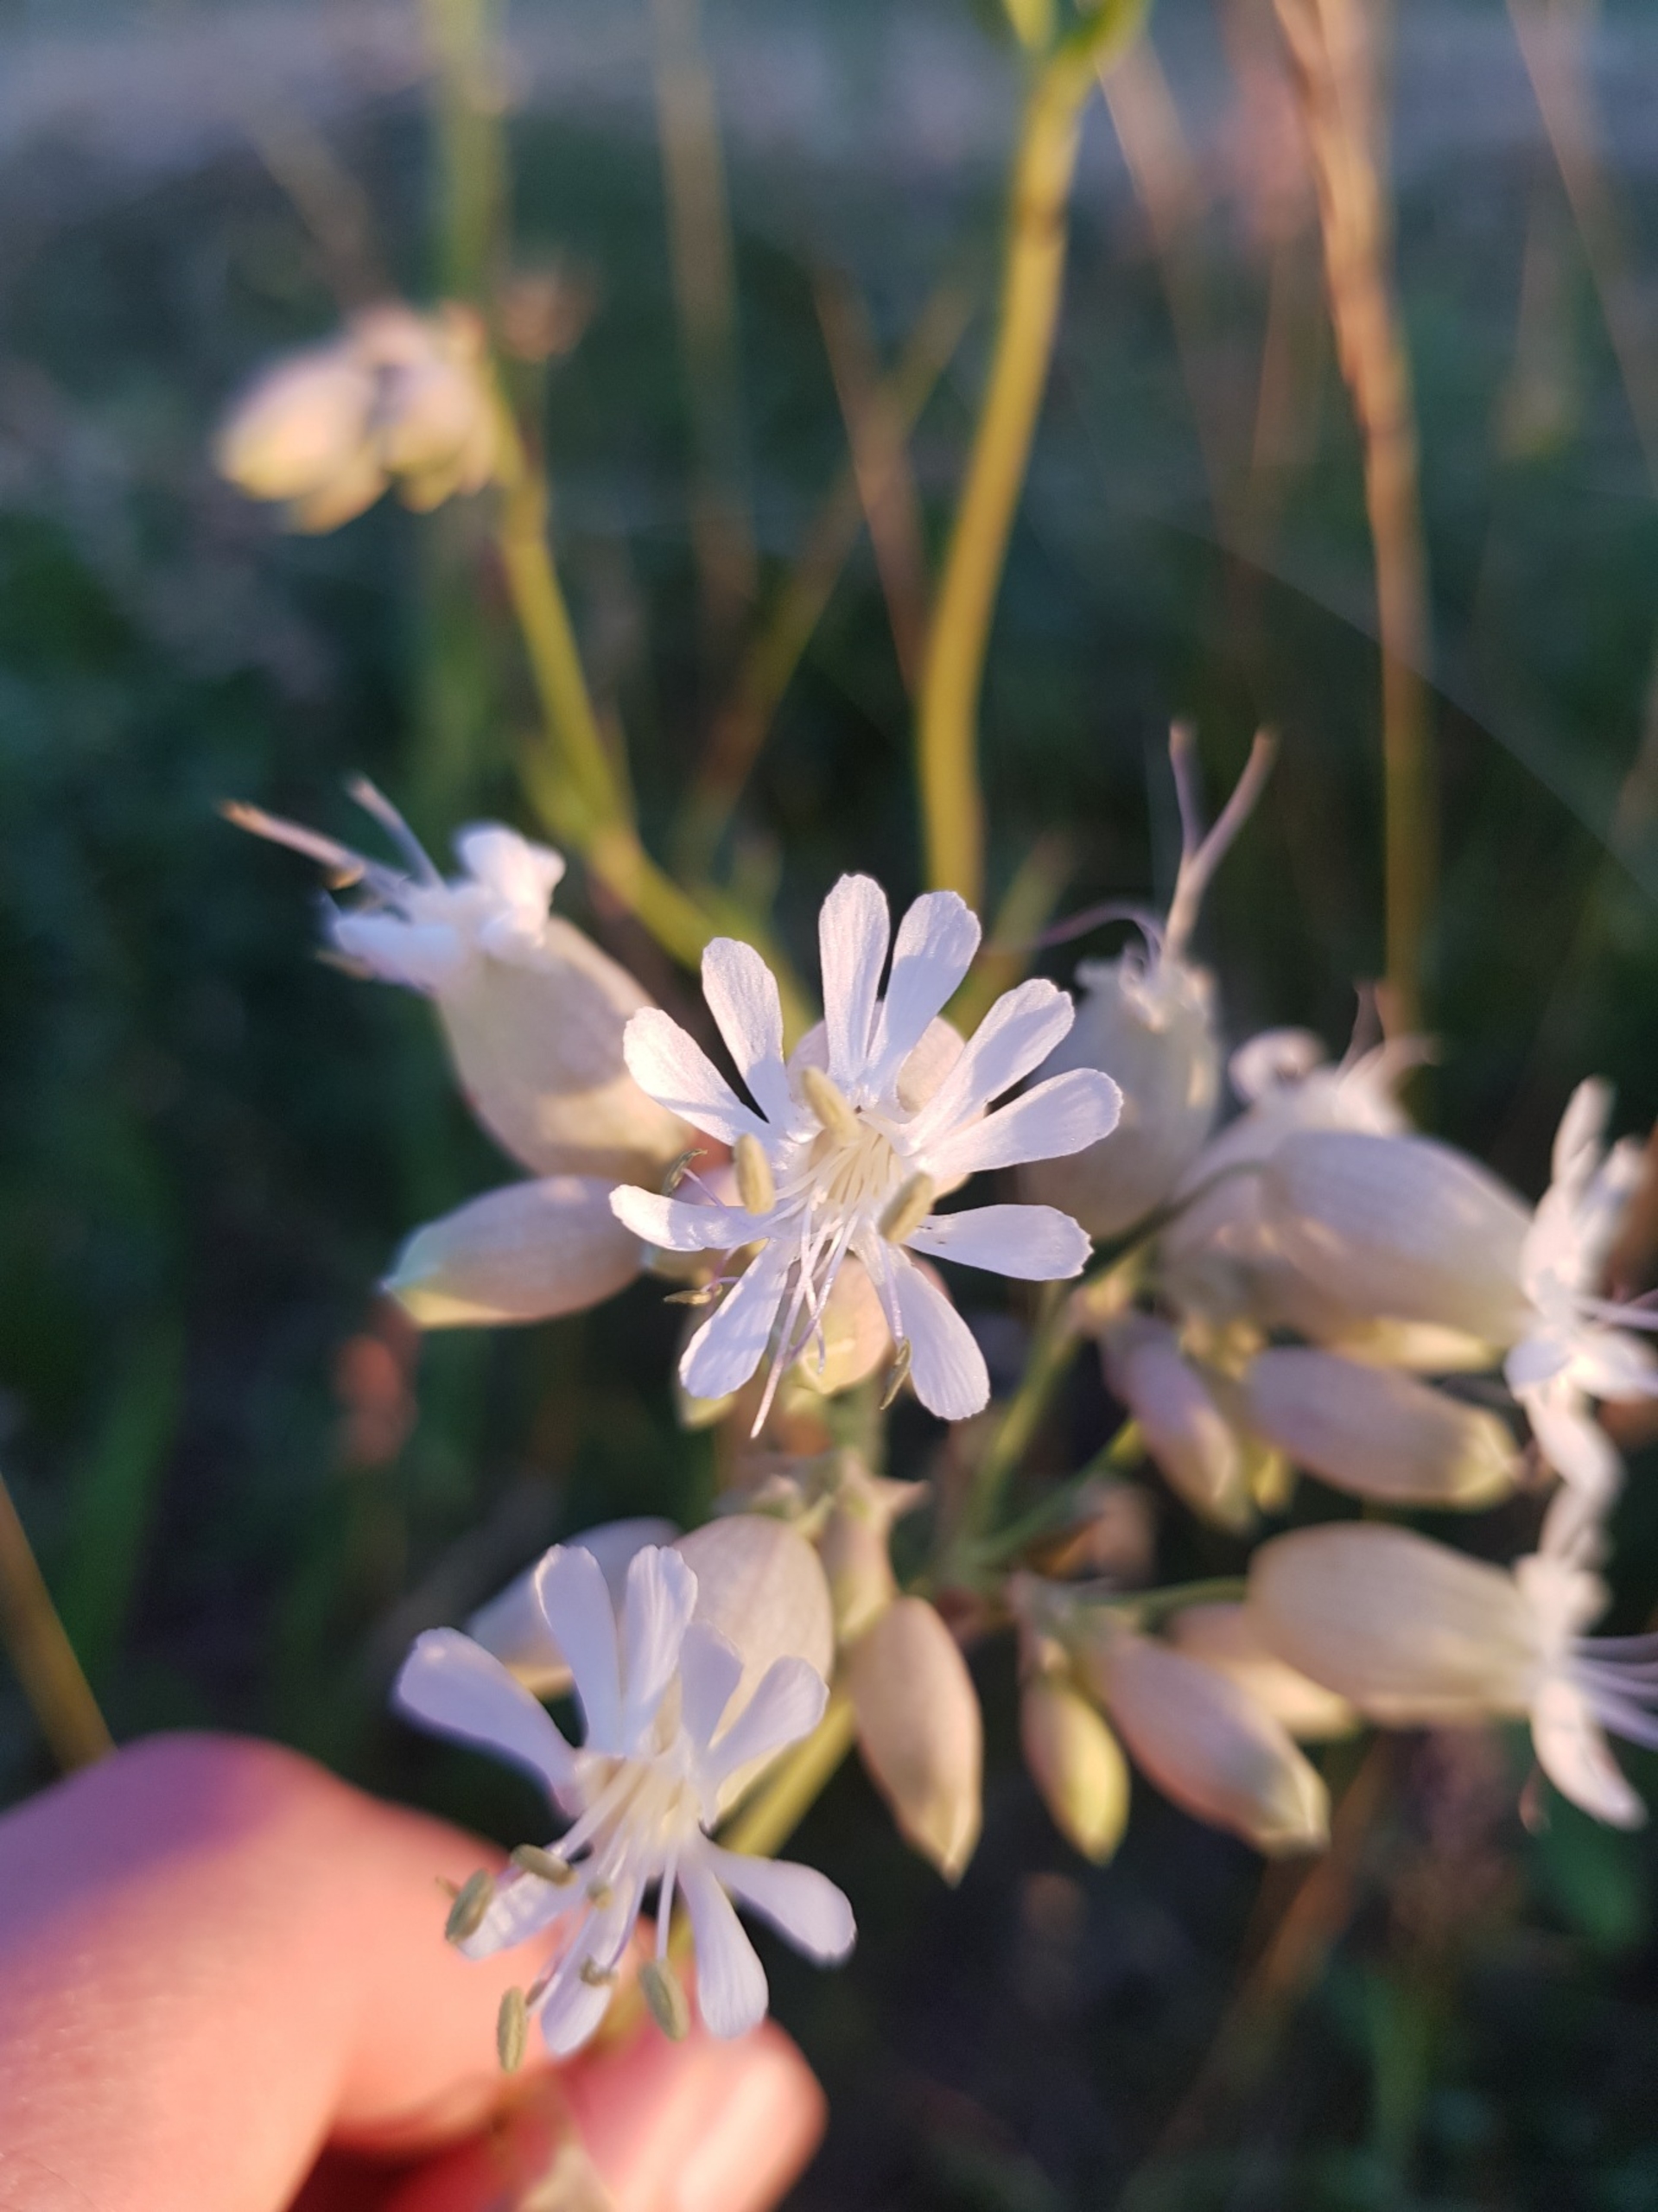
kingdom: Plantae
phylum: Tracheophyta
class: Magnoliopsida
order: Caryophyllales
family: Caryophyllaceae
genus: Silene
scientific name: Silene vulgaris
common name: Blæresmælde
